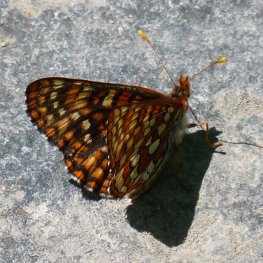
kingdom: Animalia
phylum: Arthropoda
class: Insecta
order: Lepidoptera
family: Nymphalidae
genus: Occidryas
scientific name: Occidryas anicia
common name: Anicia Checkerspot
